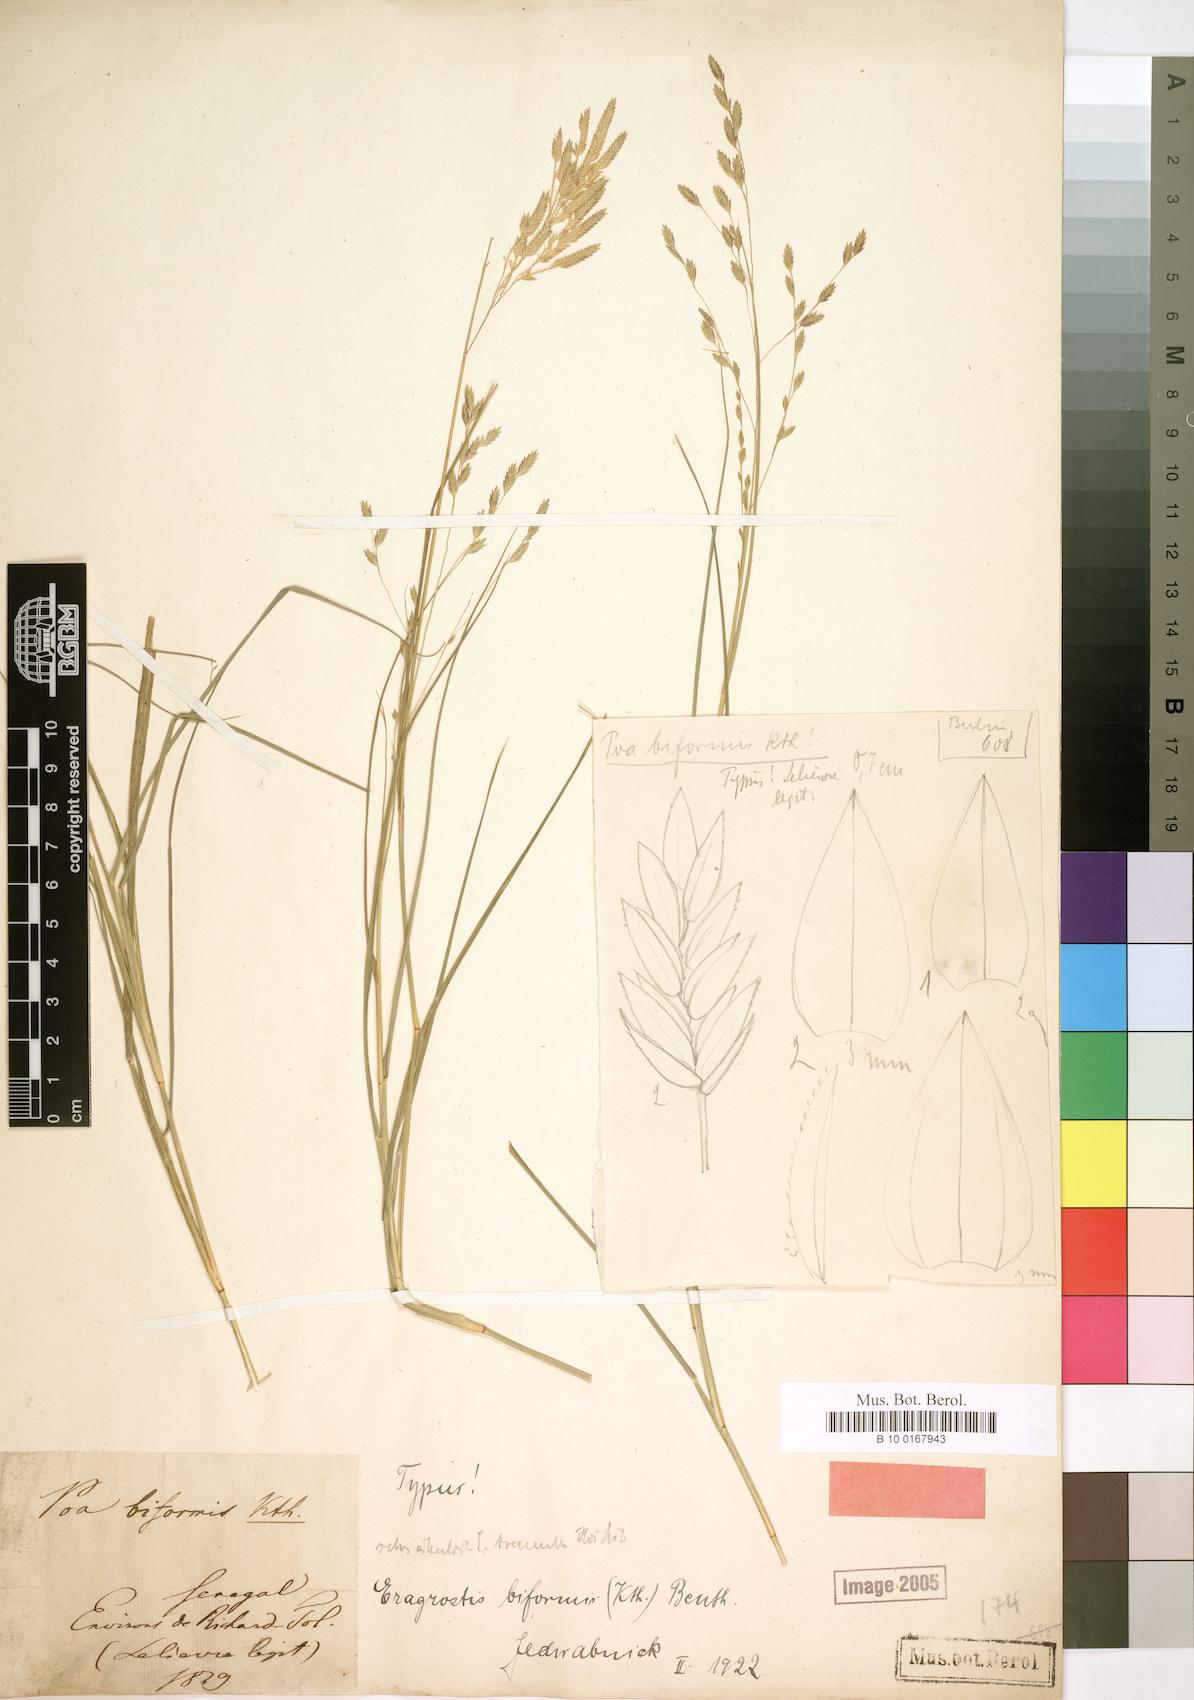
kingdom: Plantae
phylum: Tracheophyta
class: Liliopsida
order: Poales
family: Poaceae
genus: Eragrostis
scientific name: Eragrostis atrovirens
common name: Thalia lovegrass
